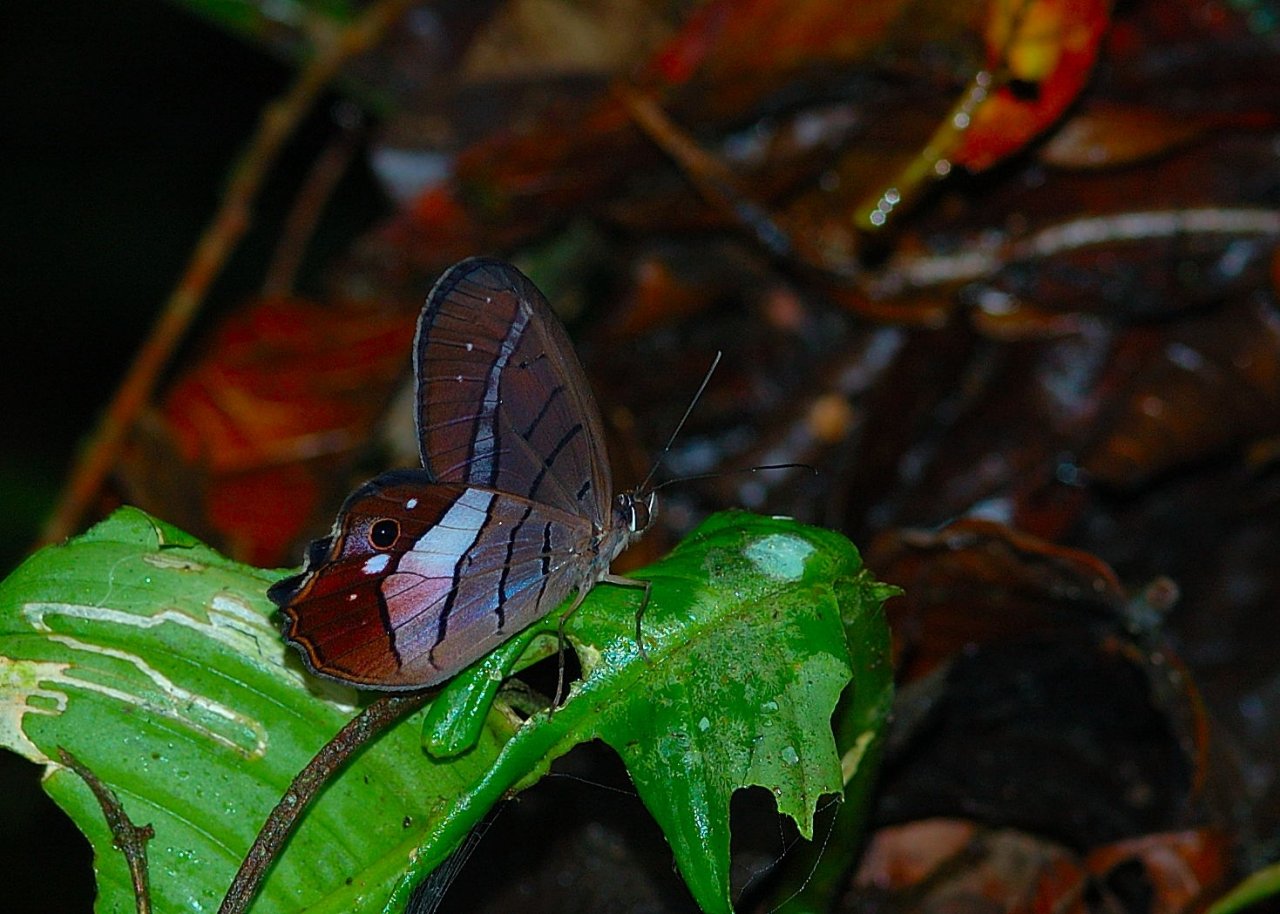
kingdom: Animalia
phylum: Arthropoda
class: Insecta
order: Lepidoptera
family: Nymphalidae
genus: Pierella
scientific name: Pierella helvina
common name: Red-washed Satyr
